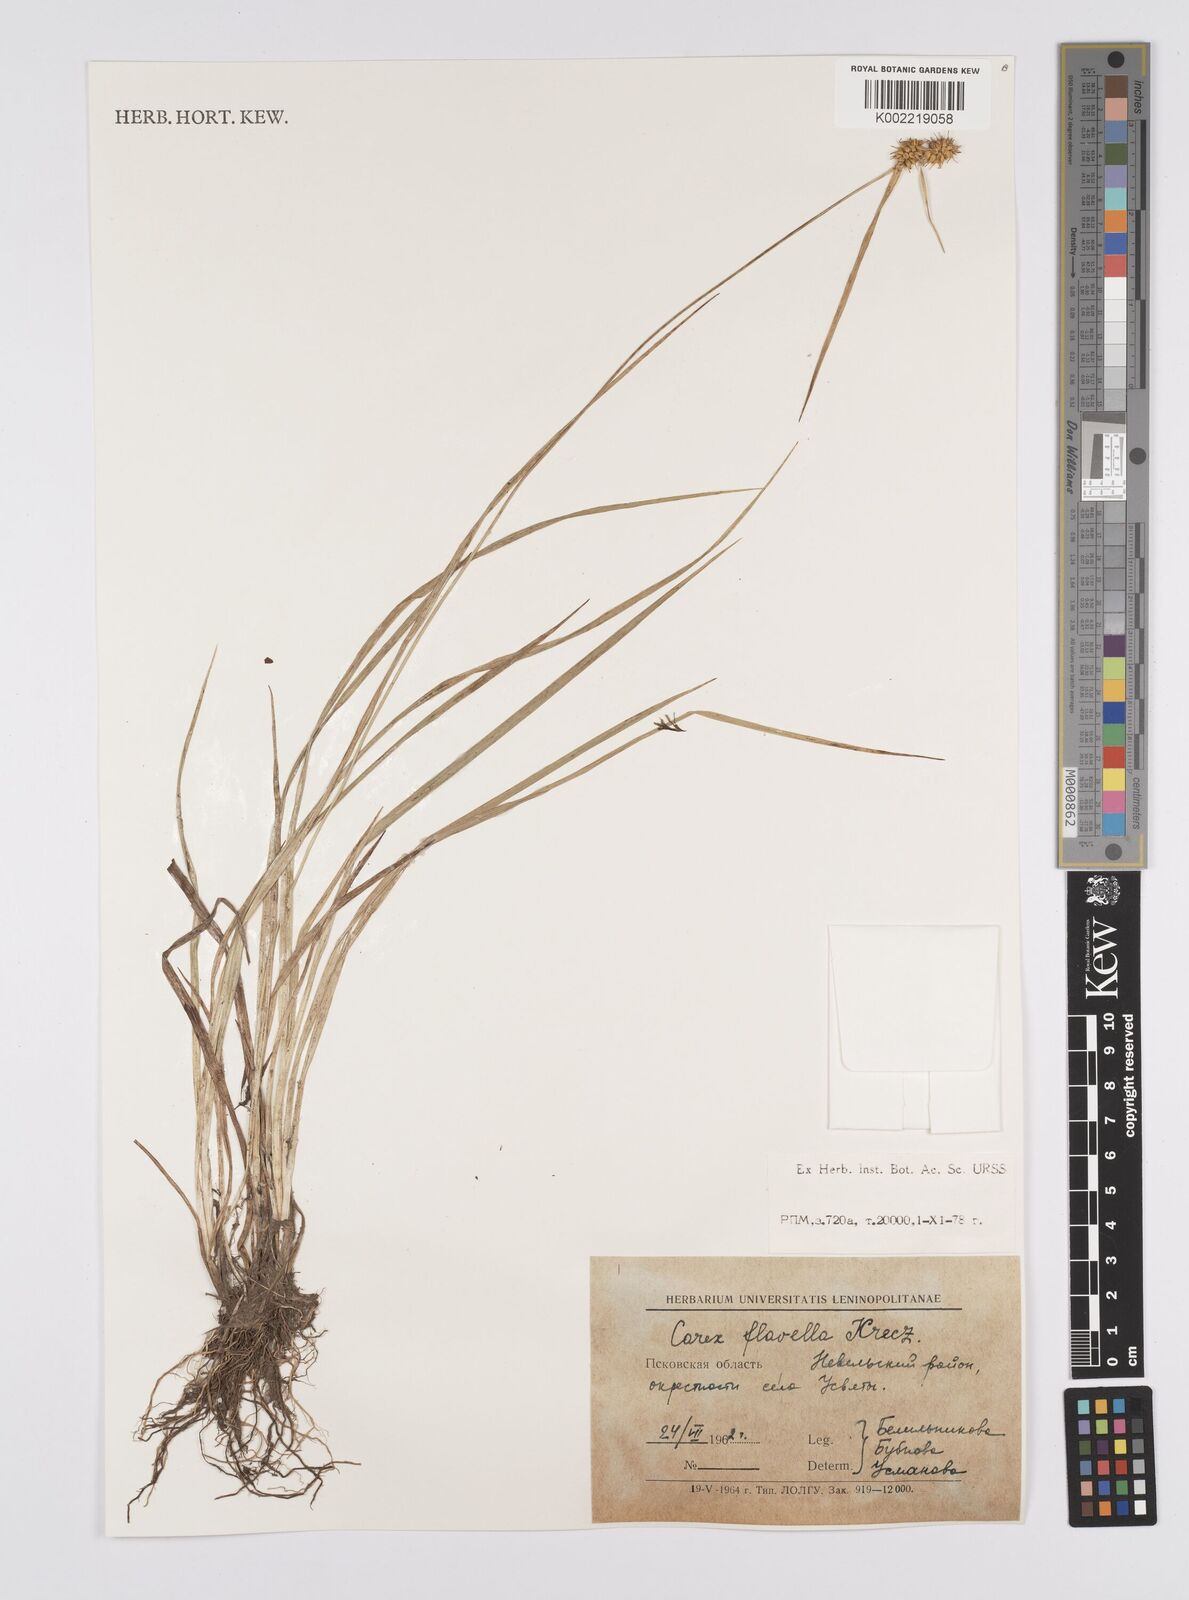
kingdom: Plantae
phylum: Tracheophyta
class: Liliopsida
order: Poales
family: Cyperaceae
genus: Carex
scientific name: Carex flava
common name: Large yellow-sedge
